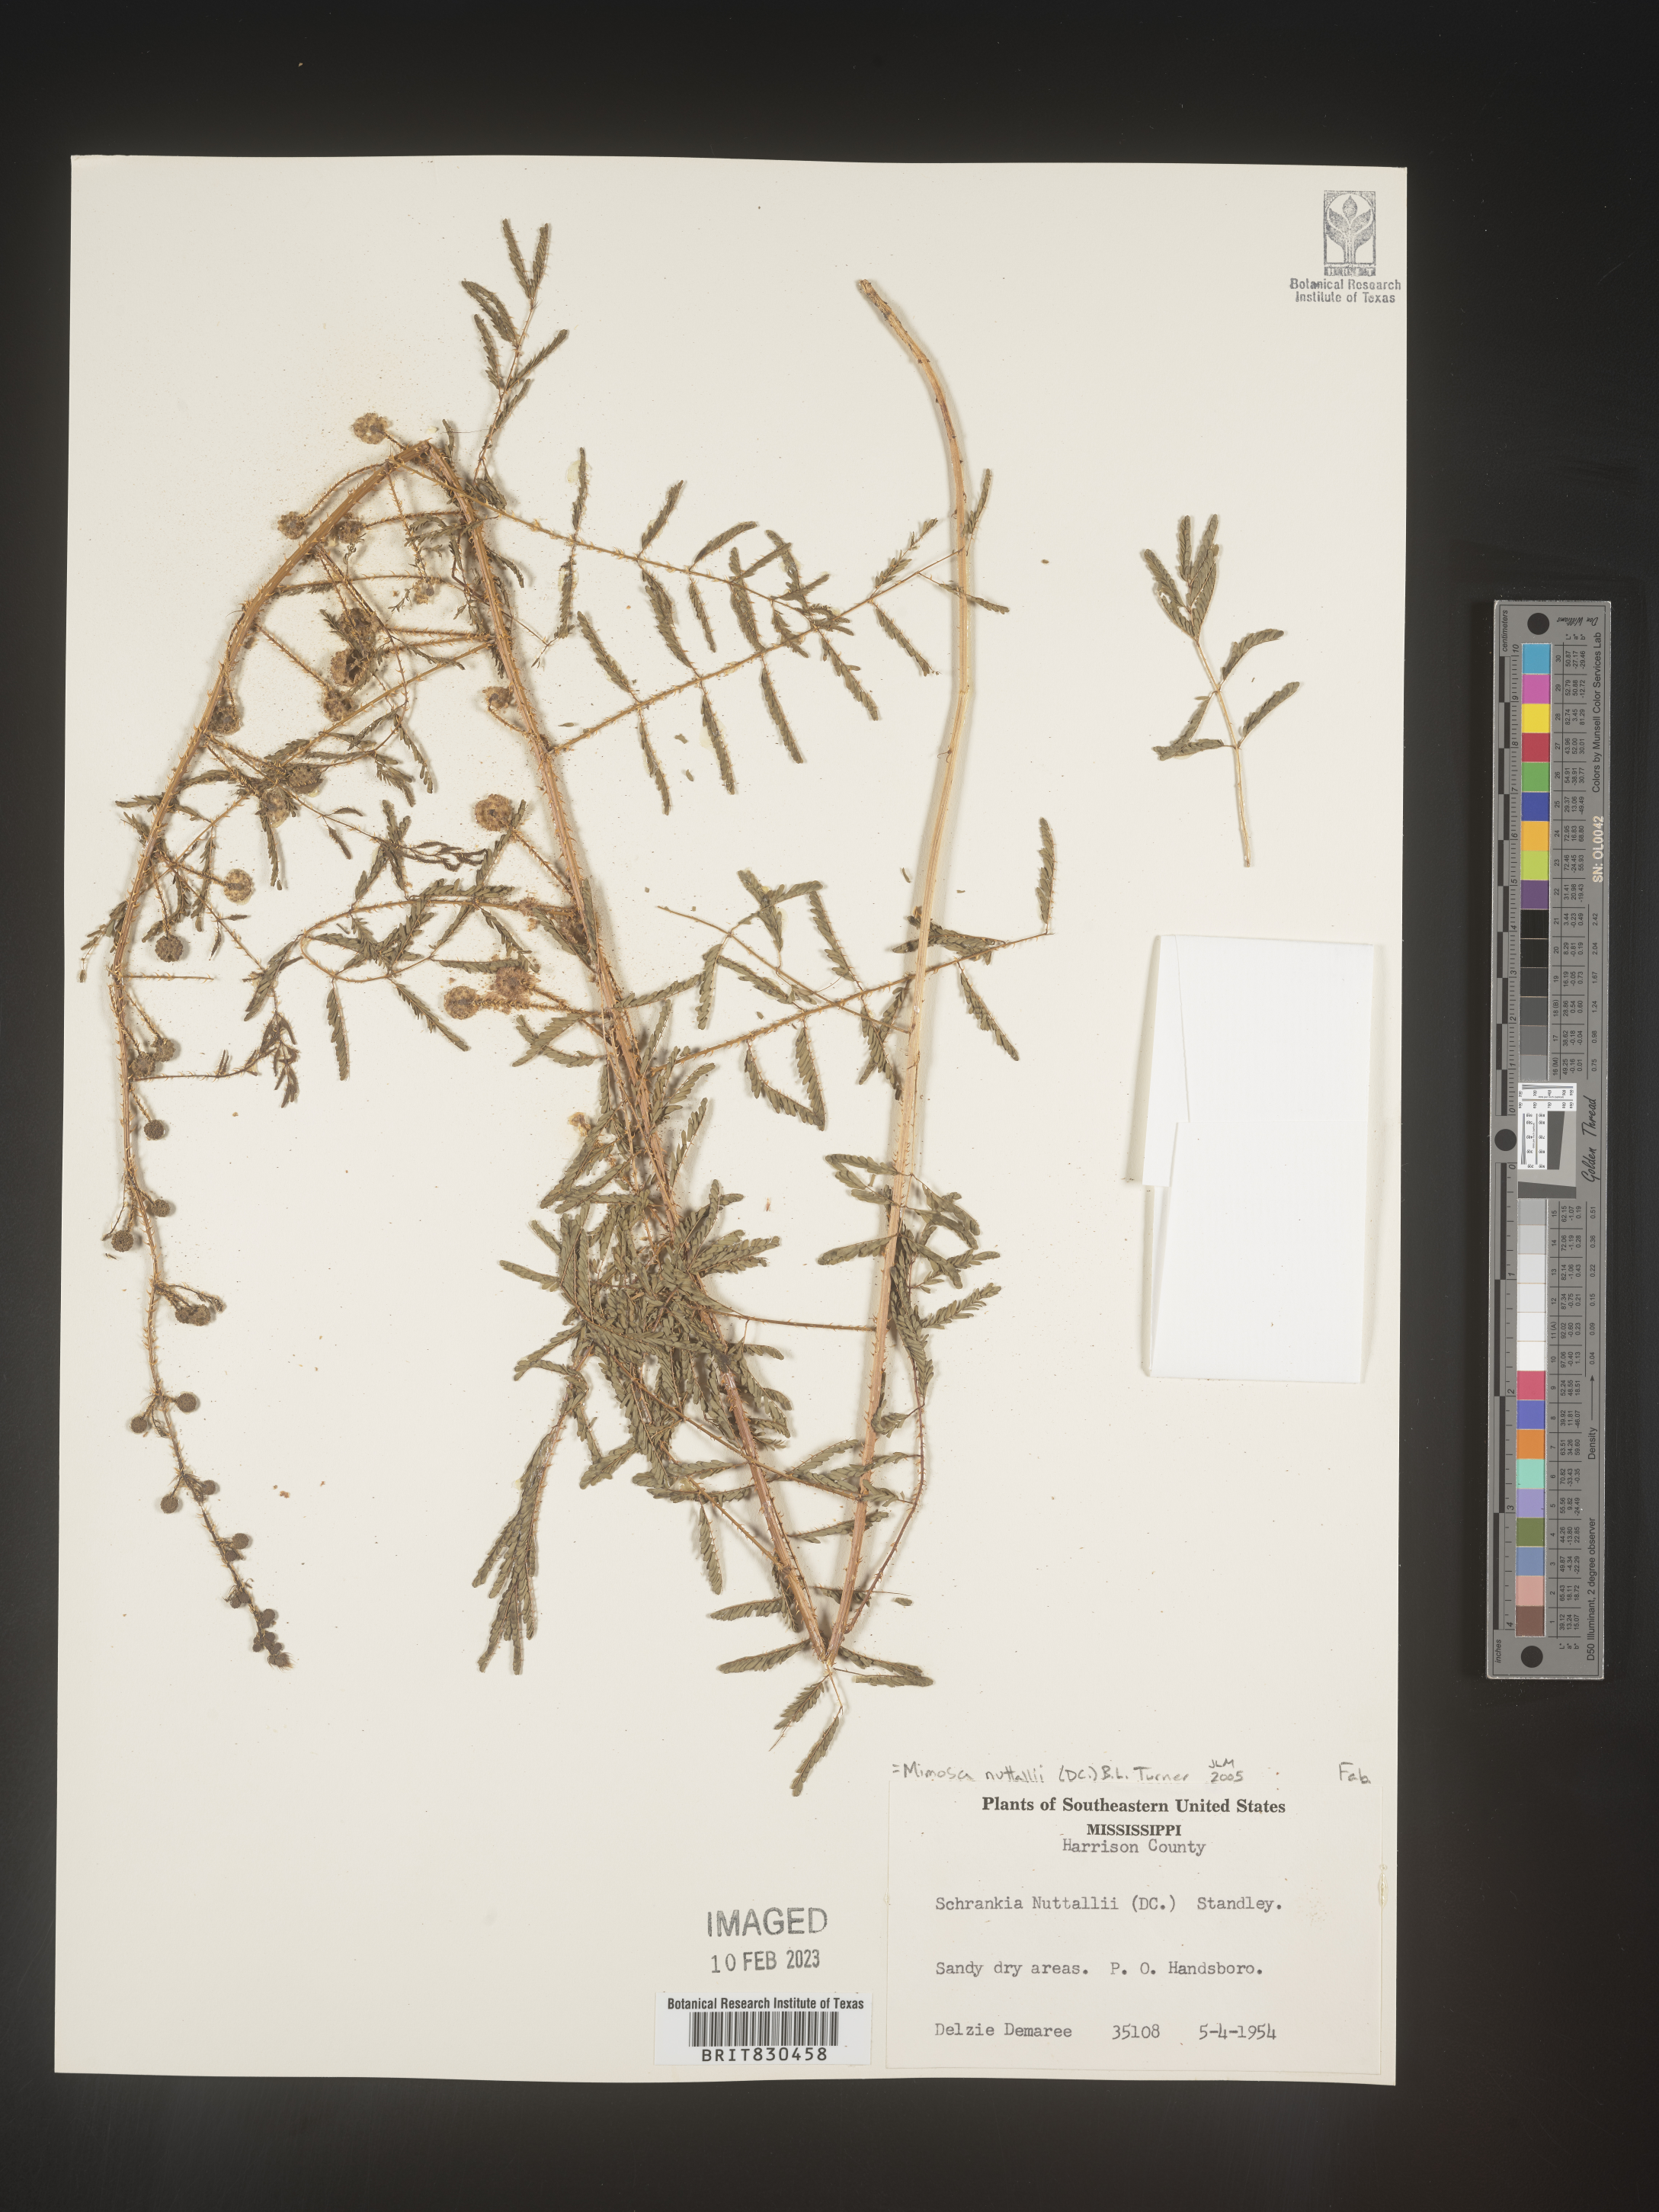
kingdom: Plantae
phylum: Tracheophyta
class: Magnoliopsida
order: Fabales
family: Fabaceae
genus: Mimosa
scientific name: Mimosa quadrivalvis
